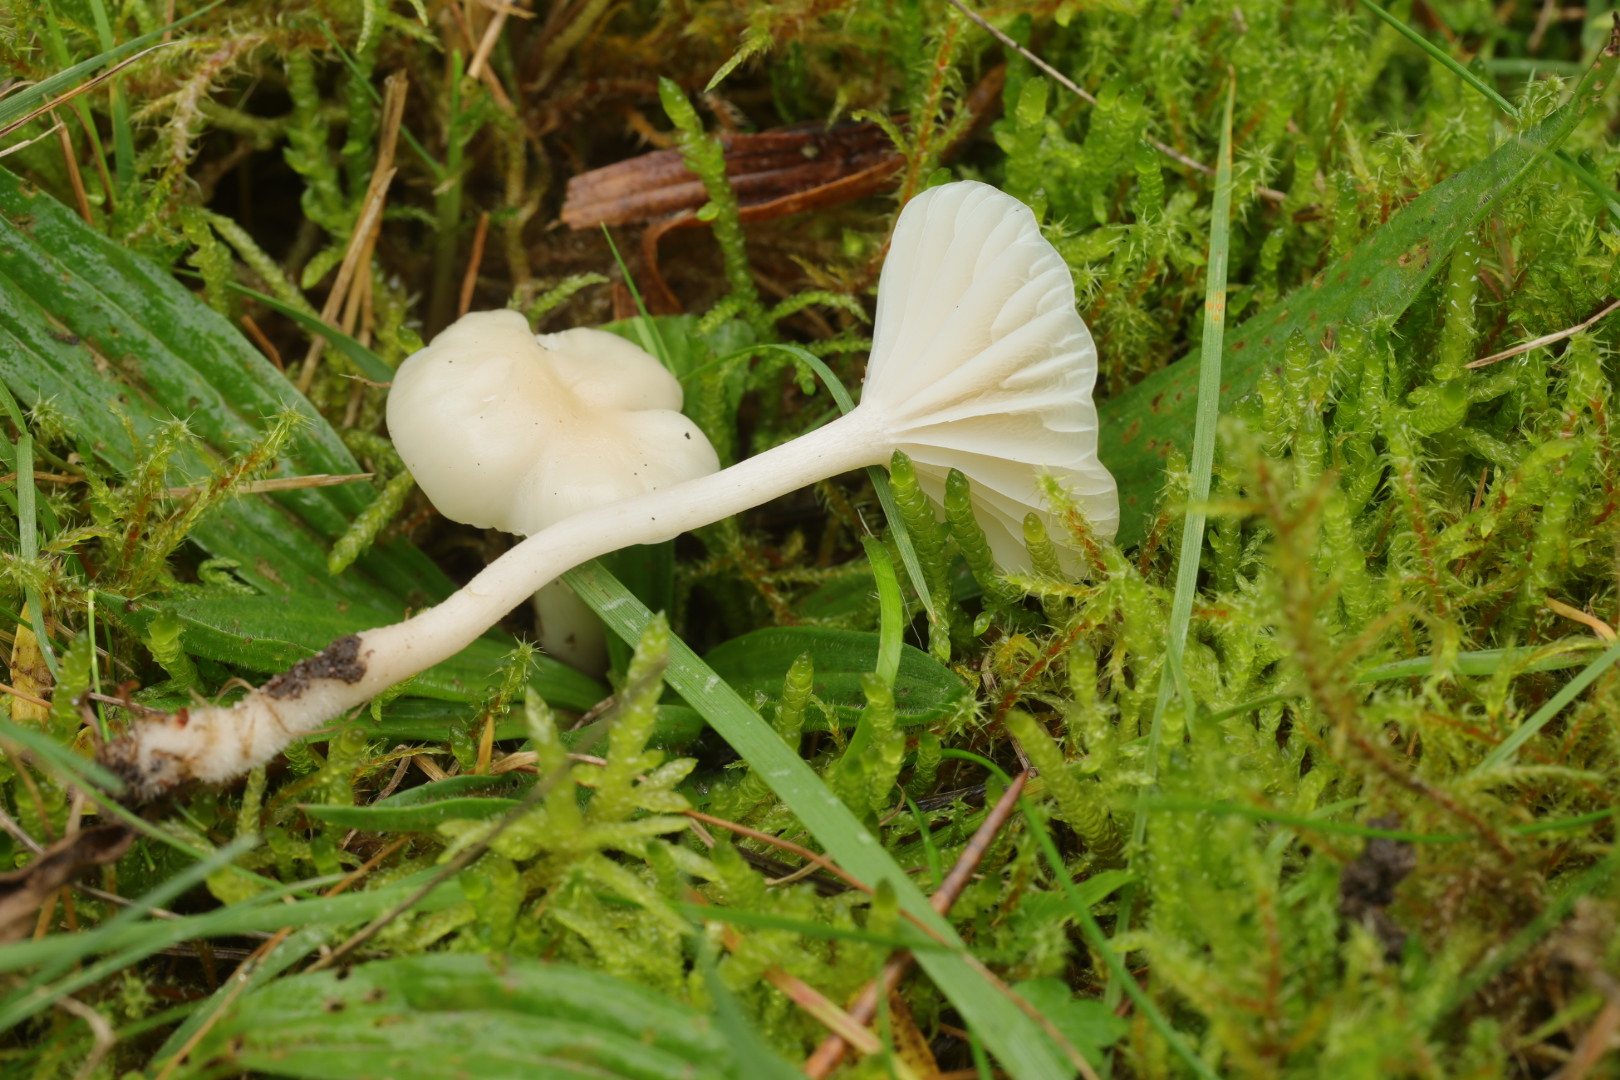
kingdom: Fungi
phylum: Basidiomycota
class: Agaricomycetes
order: Agaricales
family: Hygrophoraceae
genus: Cuphophyllus
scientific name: Cuphophyllus virgineus
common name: snehvid vokshat
